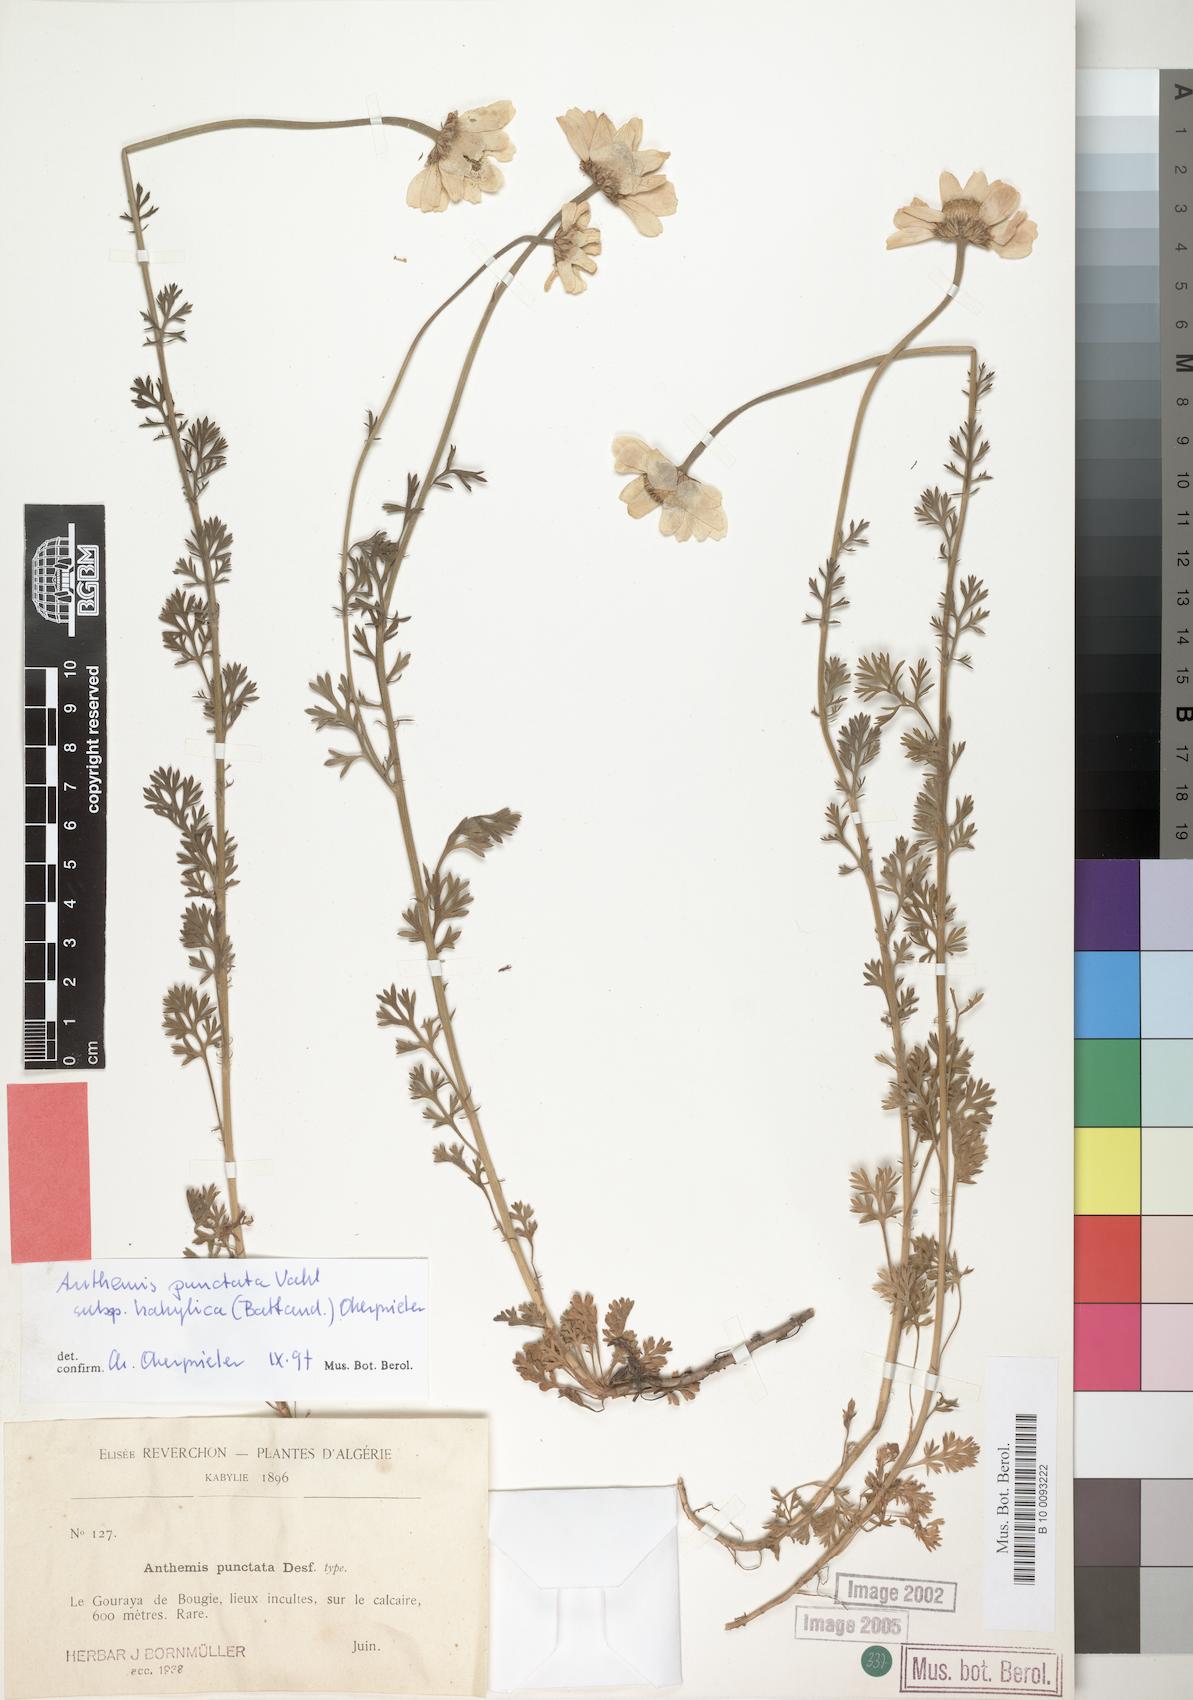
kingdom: Plantae
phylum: Tracheophyta
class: Magnoliopsida
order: Asterales
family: Asteraceae
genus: Anthemis
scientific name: Anthemis punctata
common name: Sicilian chamomile
